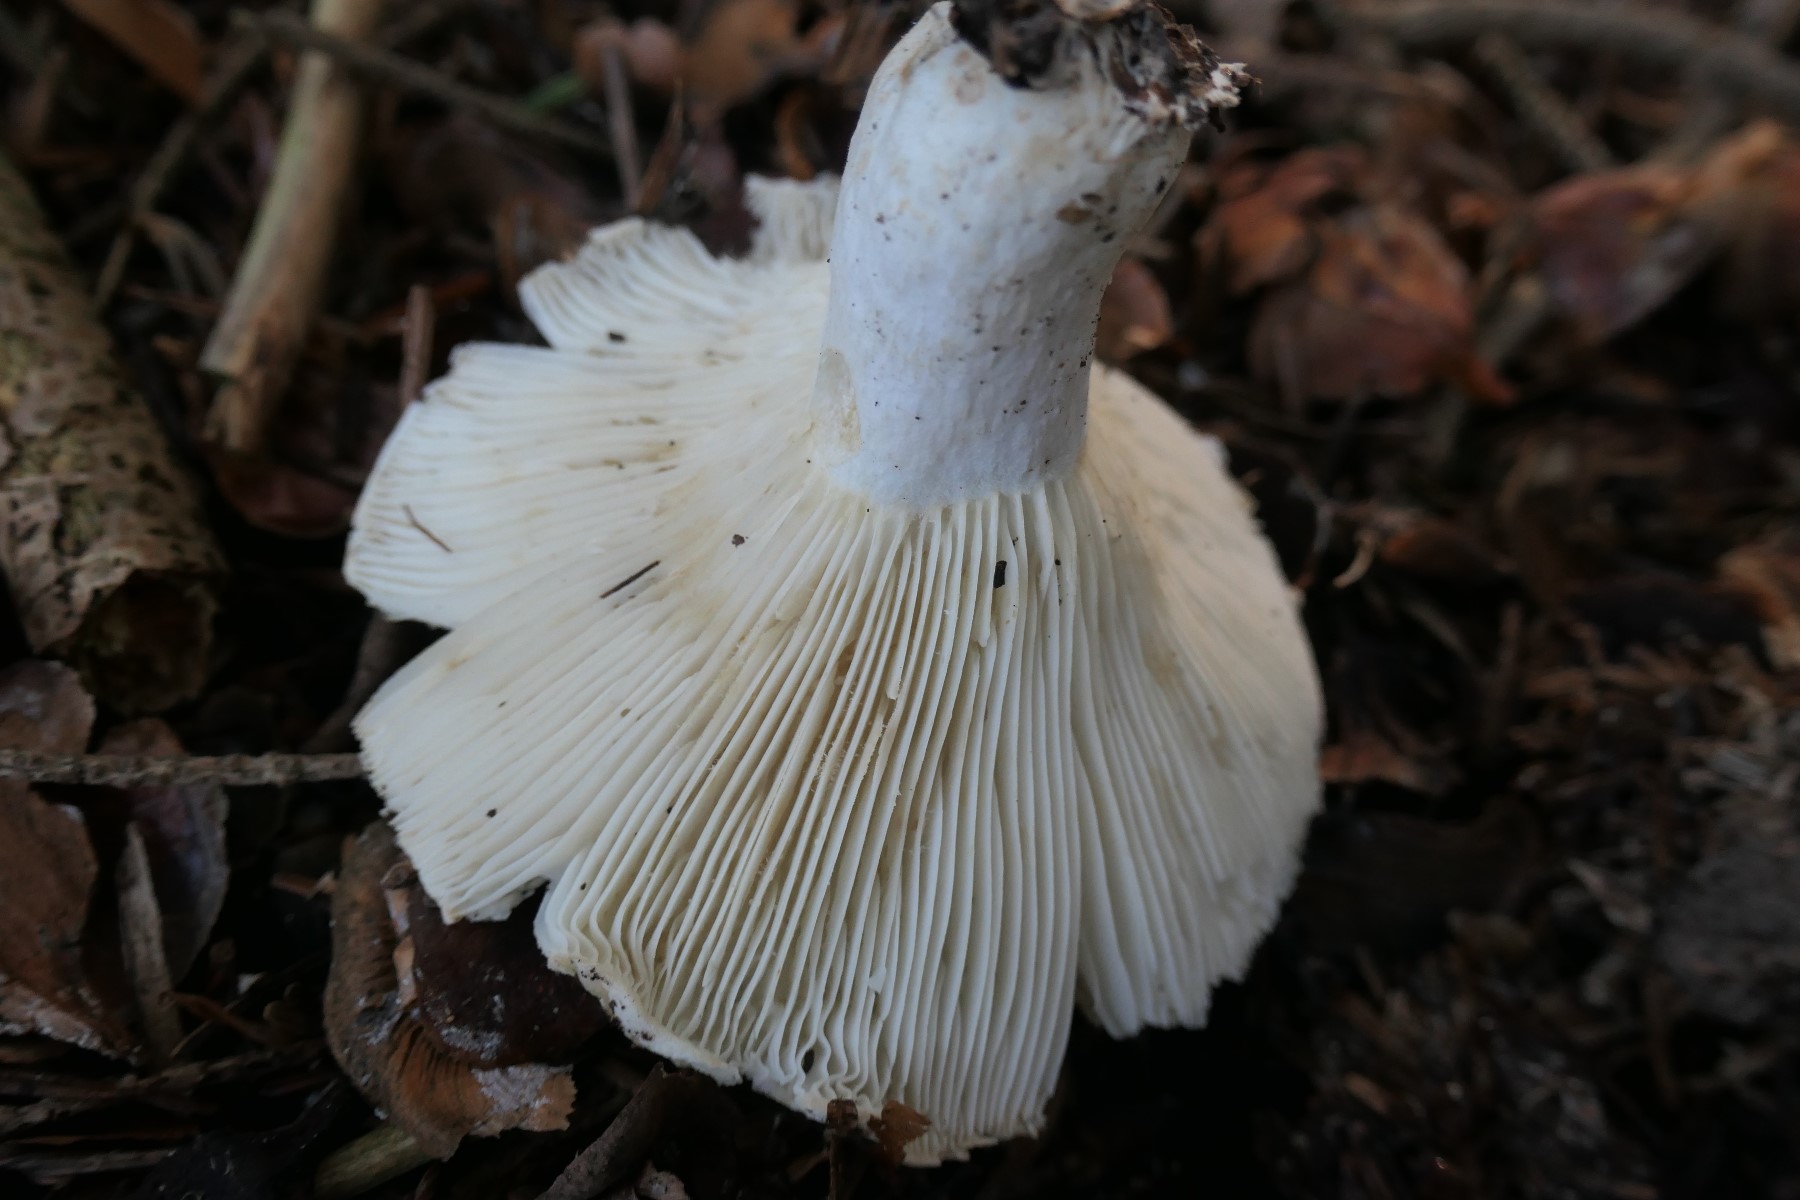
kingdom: Fungi
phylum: Basidiomycota
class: Agaricomycetes
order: Russulales
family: Russulaceae
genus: Russula
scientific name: Russula chloroides
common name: grønhalset tragt-skørhat
